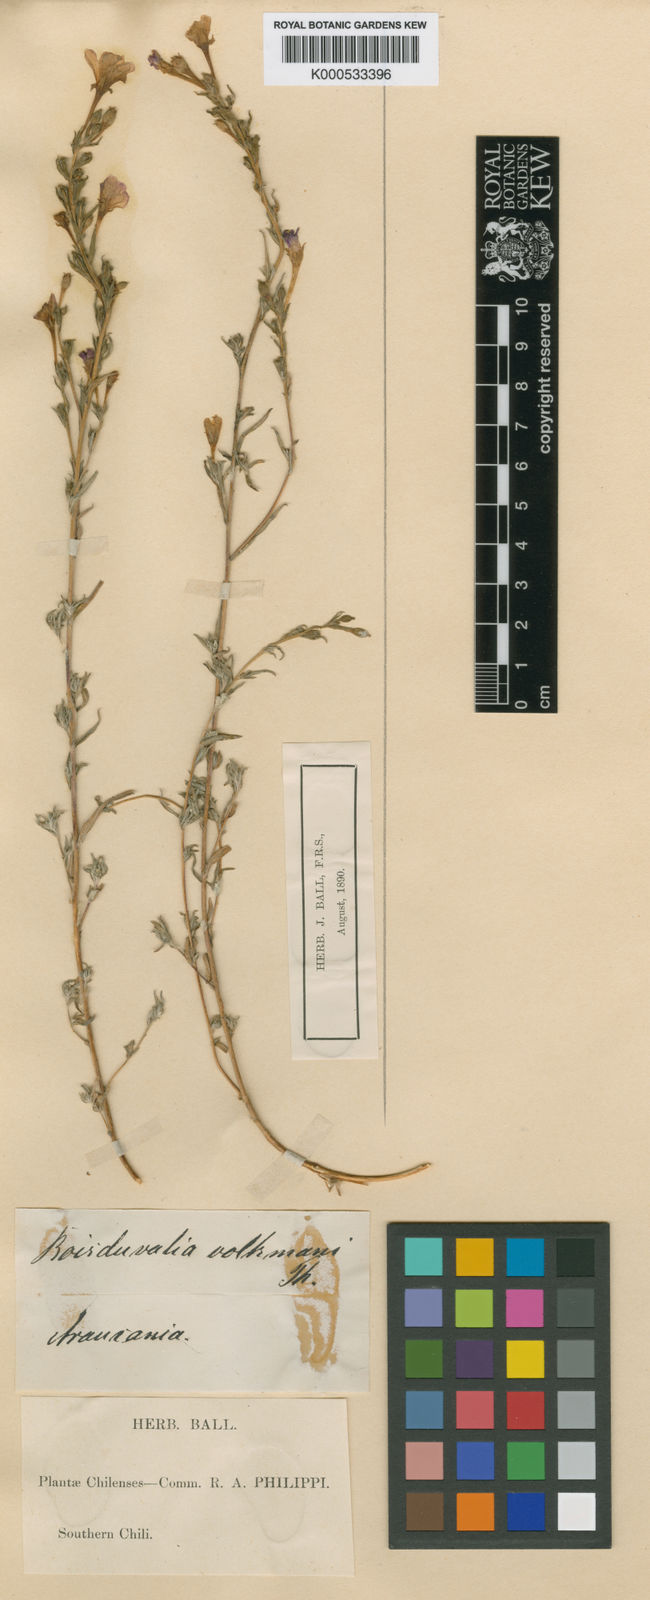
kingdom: Plantae
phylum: Tracheophyta
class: Magnoliopsida
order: Myrtales
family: Onagraceae
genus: Epilobium
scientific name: Epilobium subdentatum
